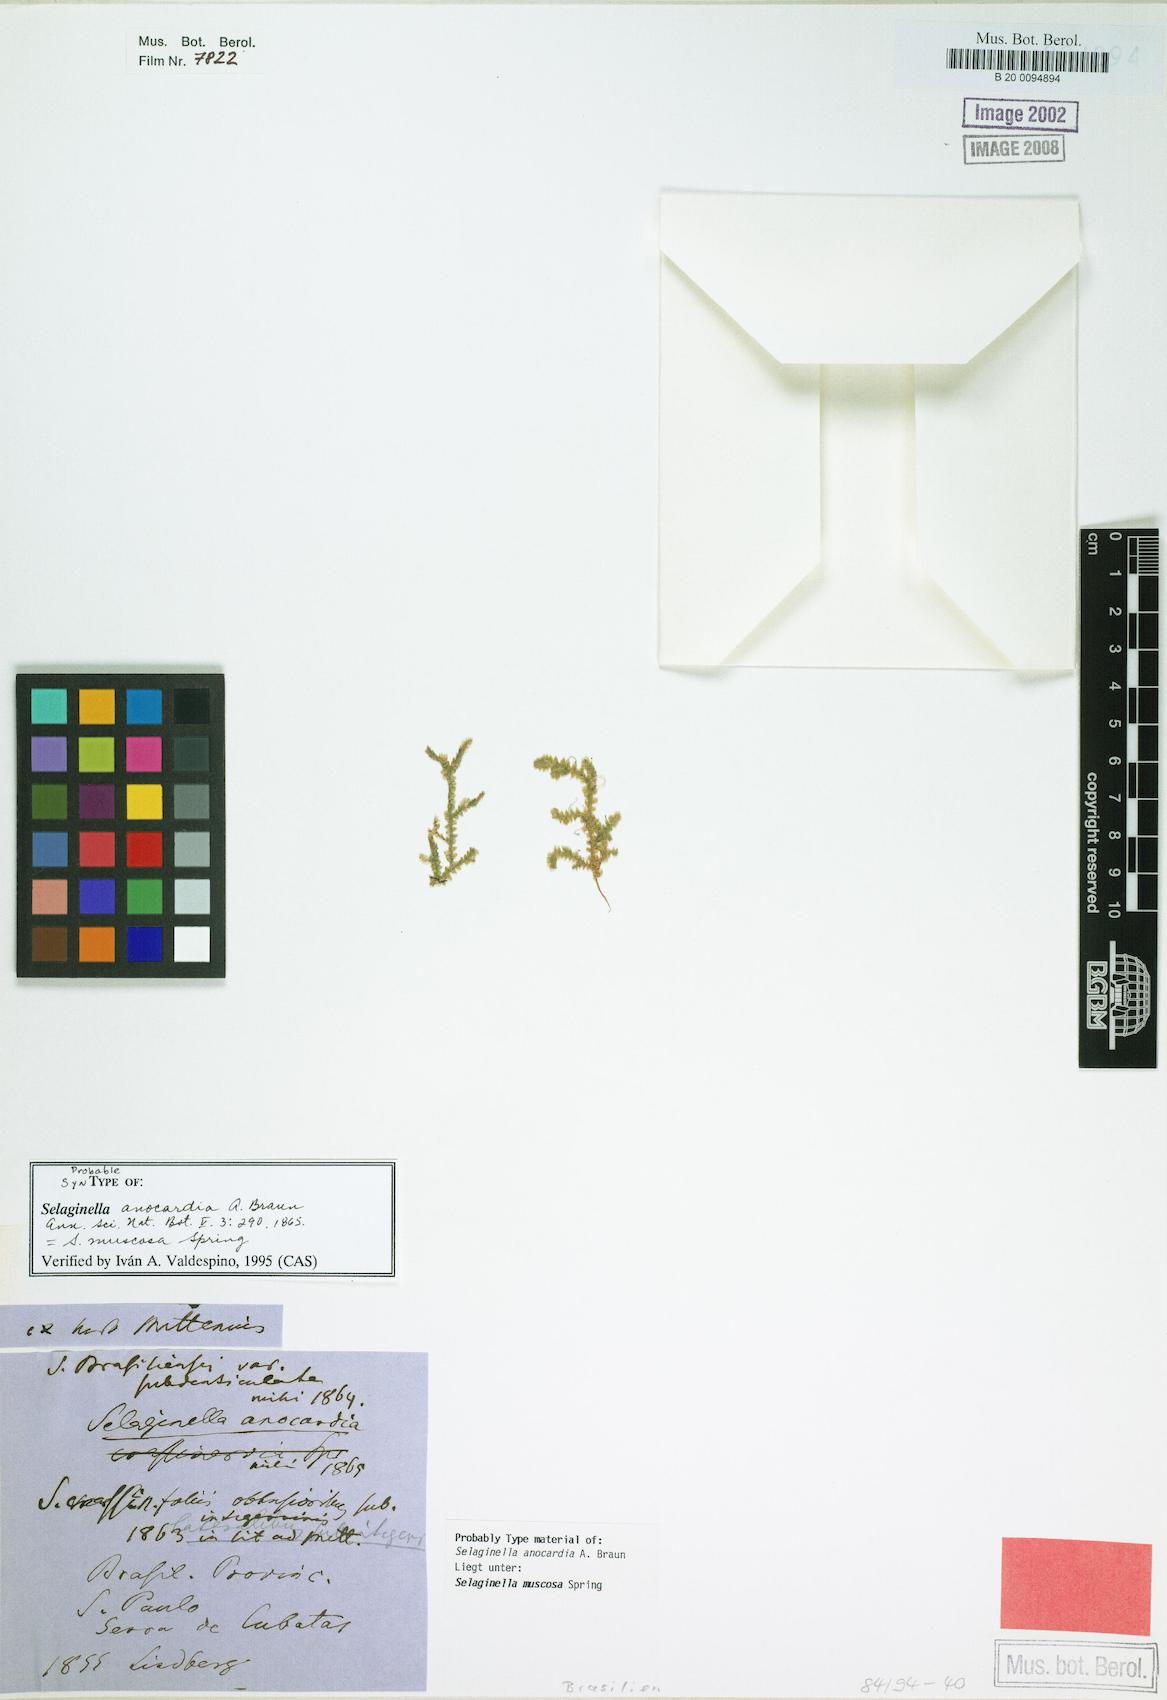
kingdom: Plantae
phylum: Tracheophyta
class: Lycopodiopsida
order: Selaginellales
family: Selaginellaceae
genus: Selaginella
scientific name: Selaginella muscosa
